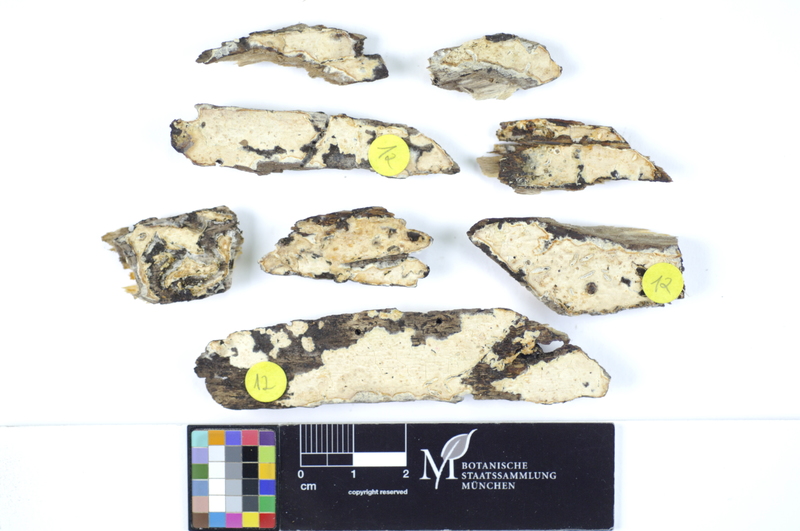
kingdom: Fungi
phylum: Basidiomycota
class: Agaricomycetes
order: Polyporales
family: Hyphodermataceae
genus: Mutatoderma
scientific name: Mutatoderma mutatum
